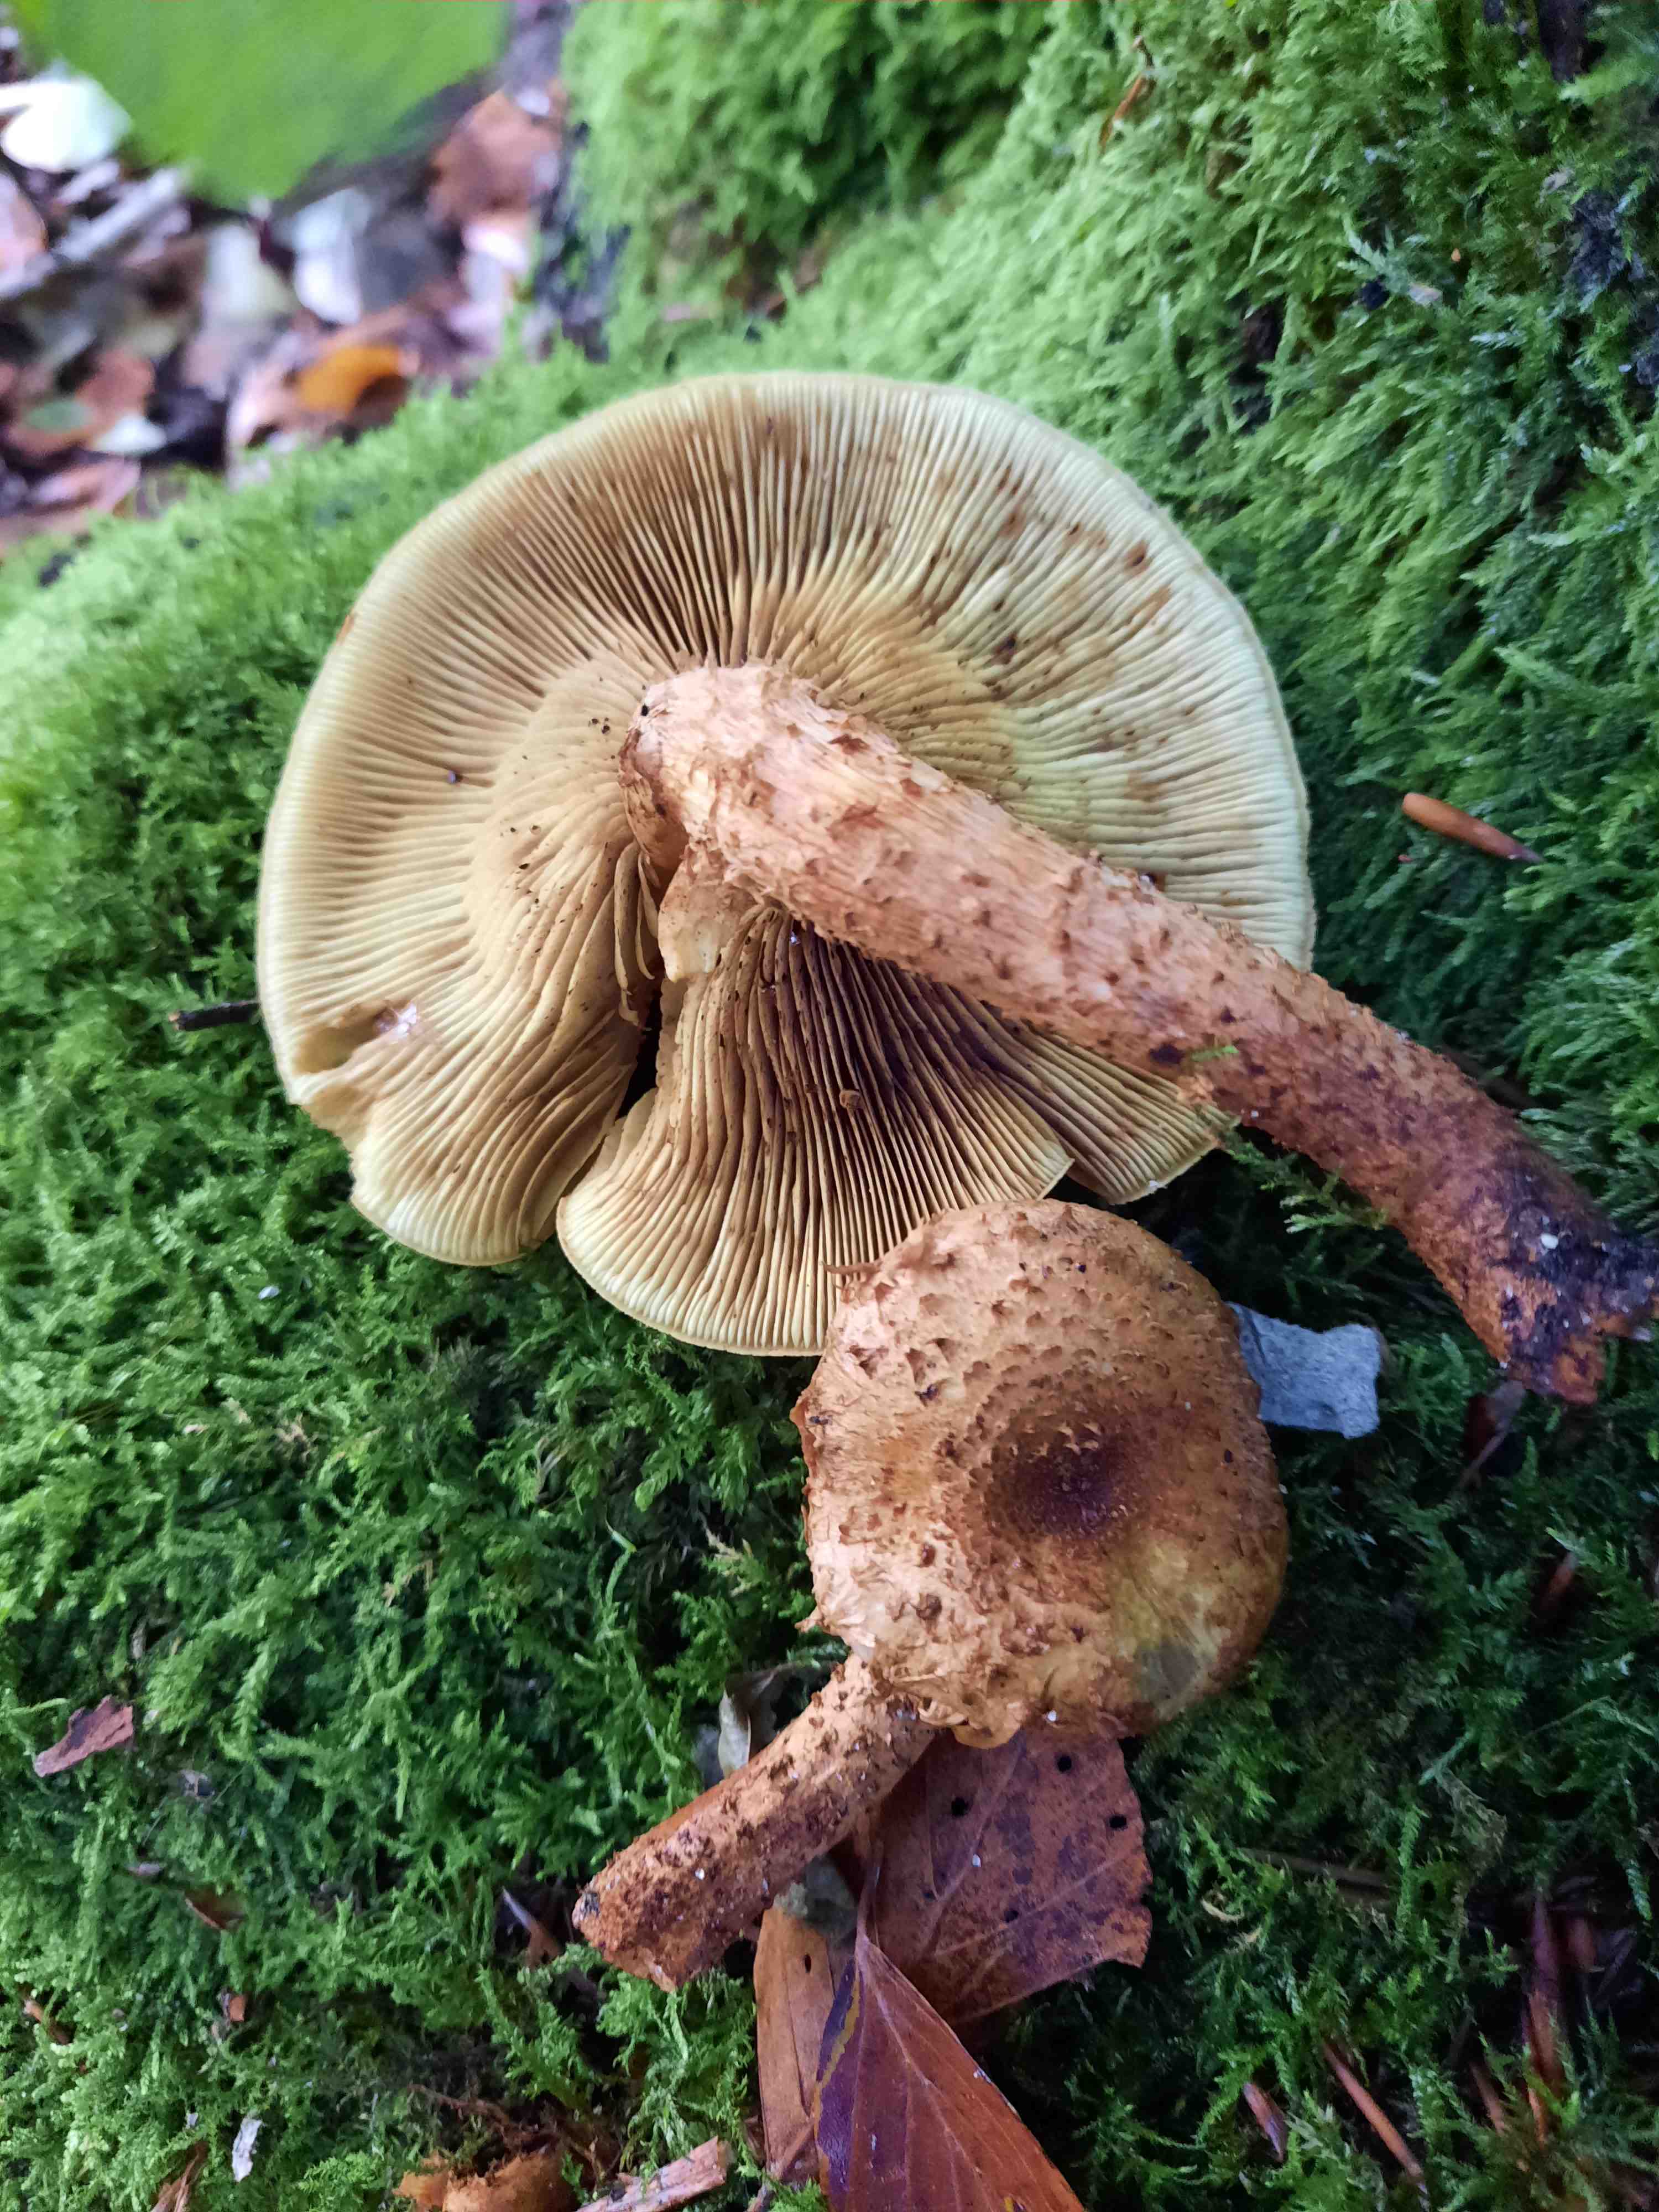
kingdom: Fungi
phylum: Basidiomycota
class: Agaricomycetes
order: Agaricales
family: Strophariaceae
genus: Pholiota
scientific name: Pholiota squarrosa
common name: krumskællet skælhat
